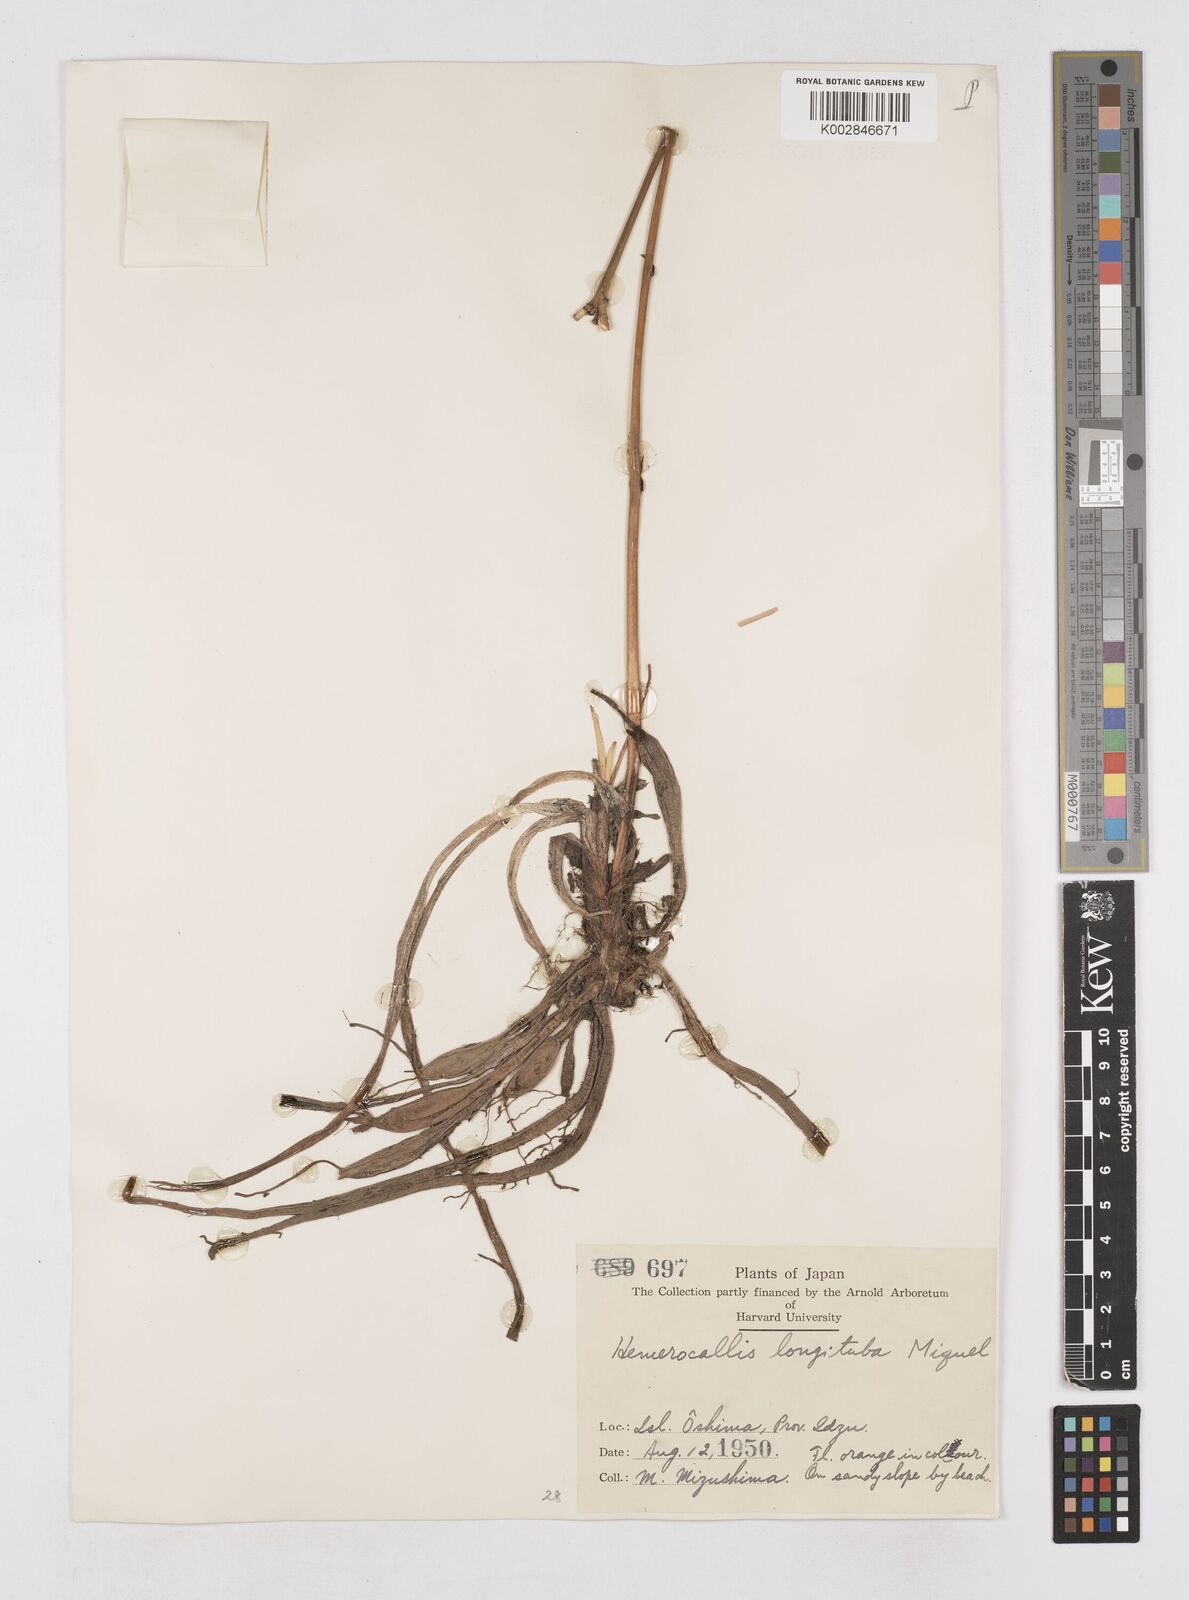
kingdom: Plantae
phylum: Tracheophyta
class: Liliopsida
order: Asparagales
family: Asphodelaceae
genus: Hemerocallis
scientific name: Hemerocallis fulva
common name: Orange day-lily
